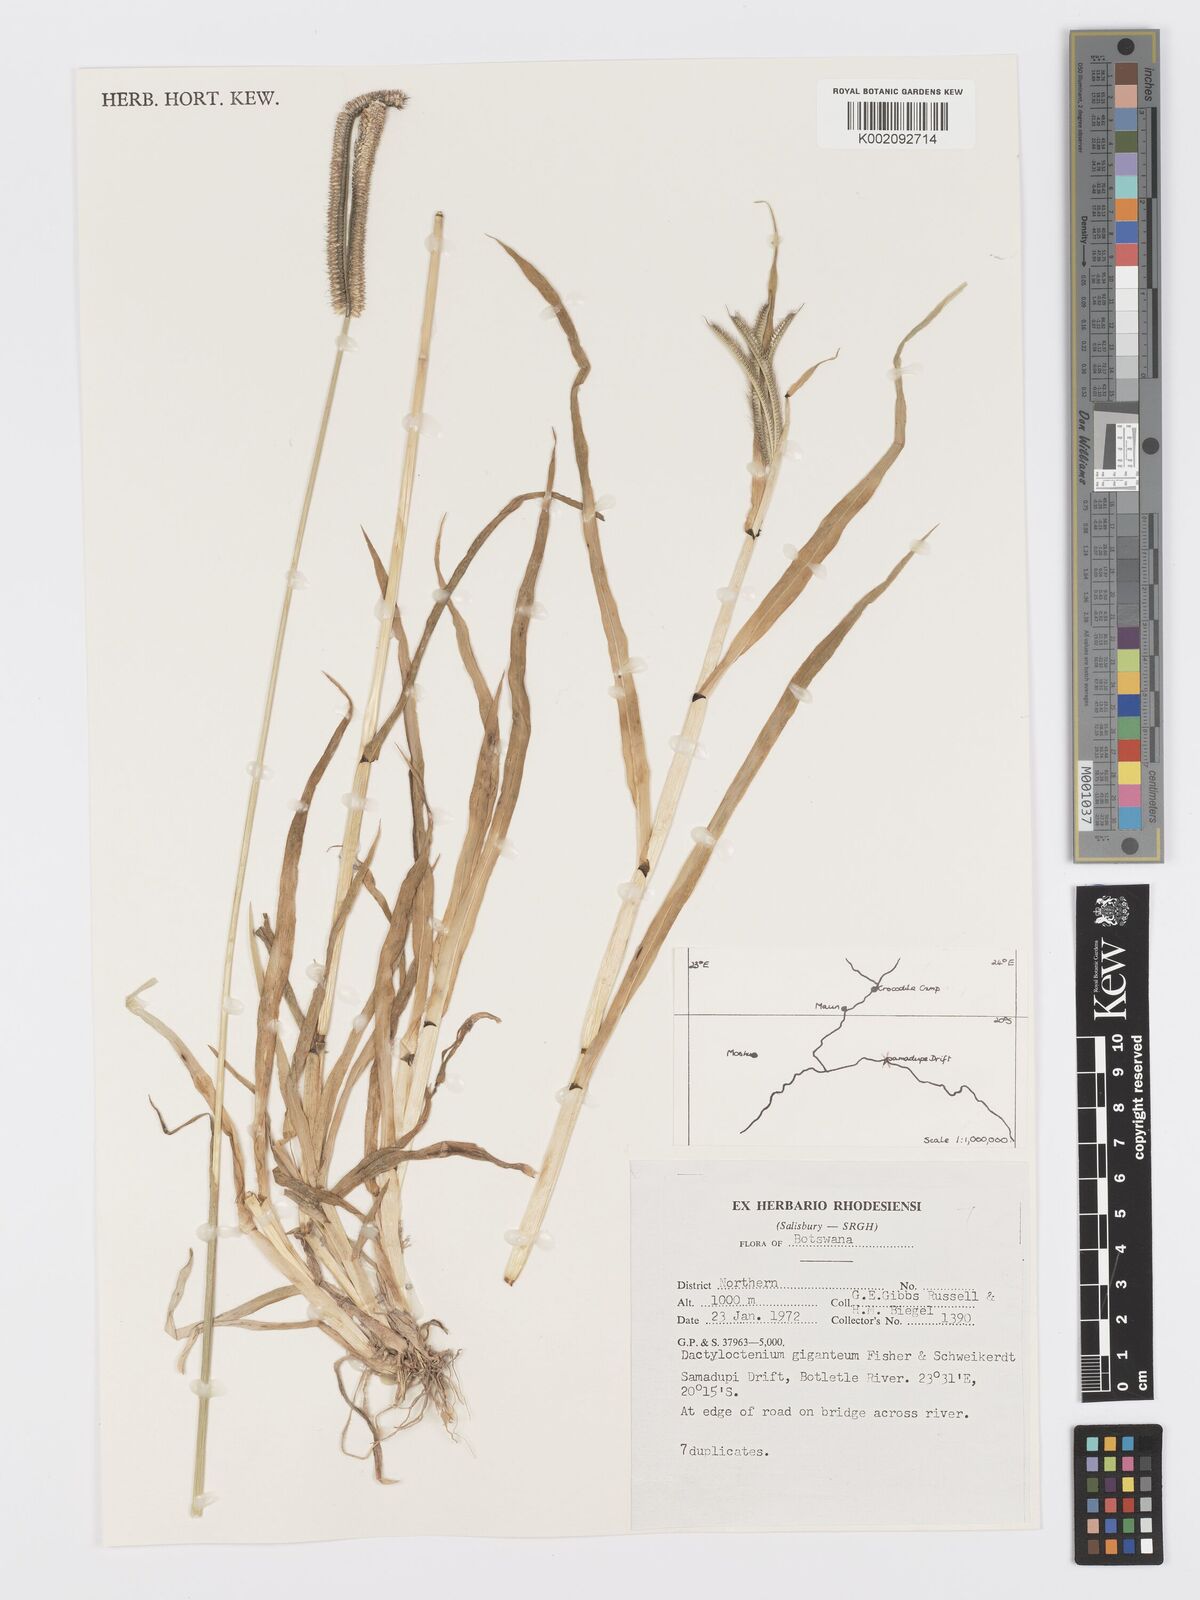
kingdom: Plantae
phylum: Tracheophyta
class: Liliopsida
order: Poales
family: Poaceae
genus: Dactyloctenium
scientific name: Dactyloctenium giganteum
